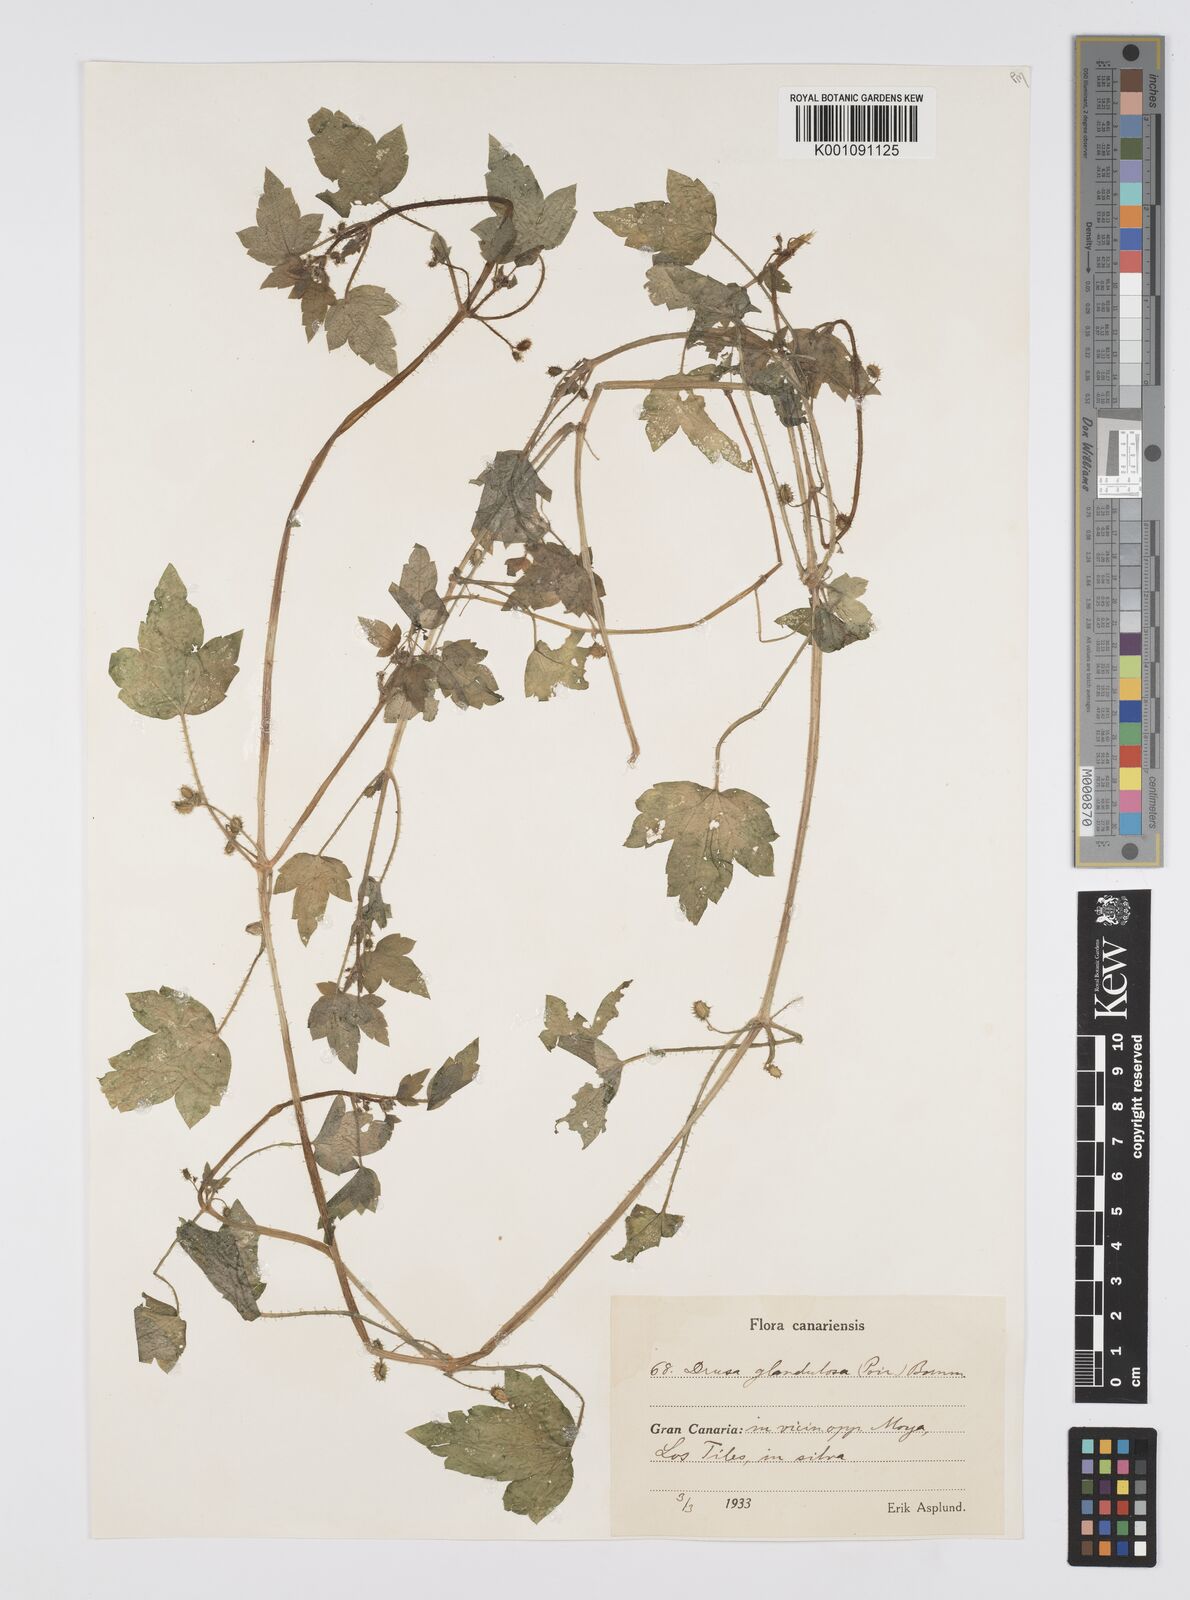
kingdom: Plantae
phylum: Tracheophyta
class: Magnoliopsida
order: Apiales
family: Apiaceae
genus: Drusa
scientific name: Drusa glandulosa
